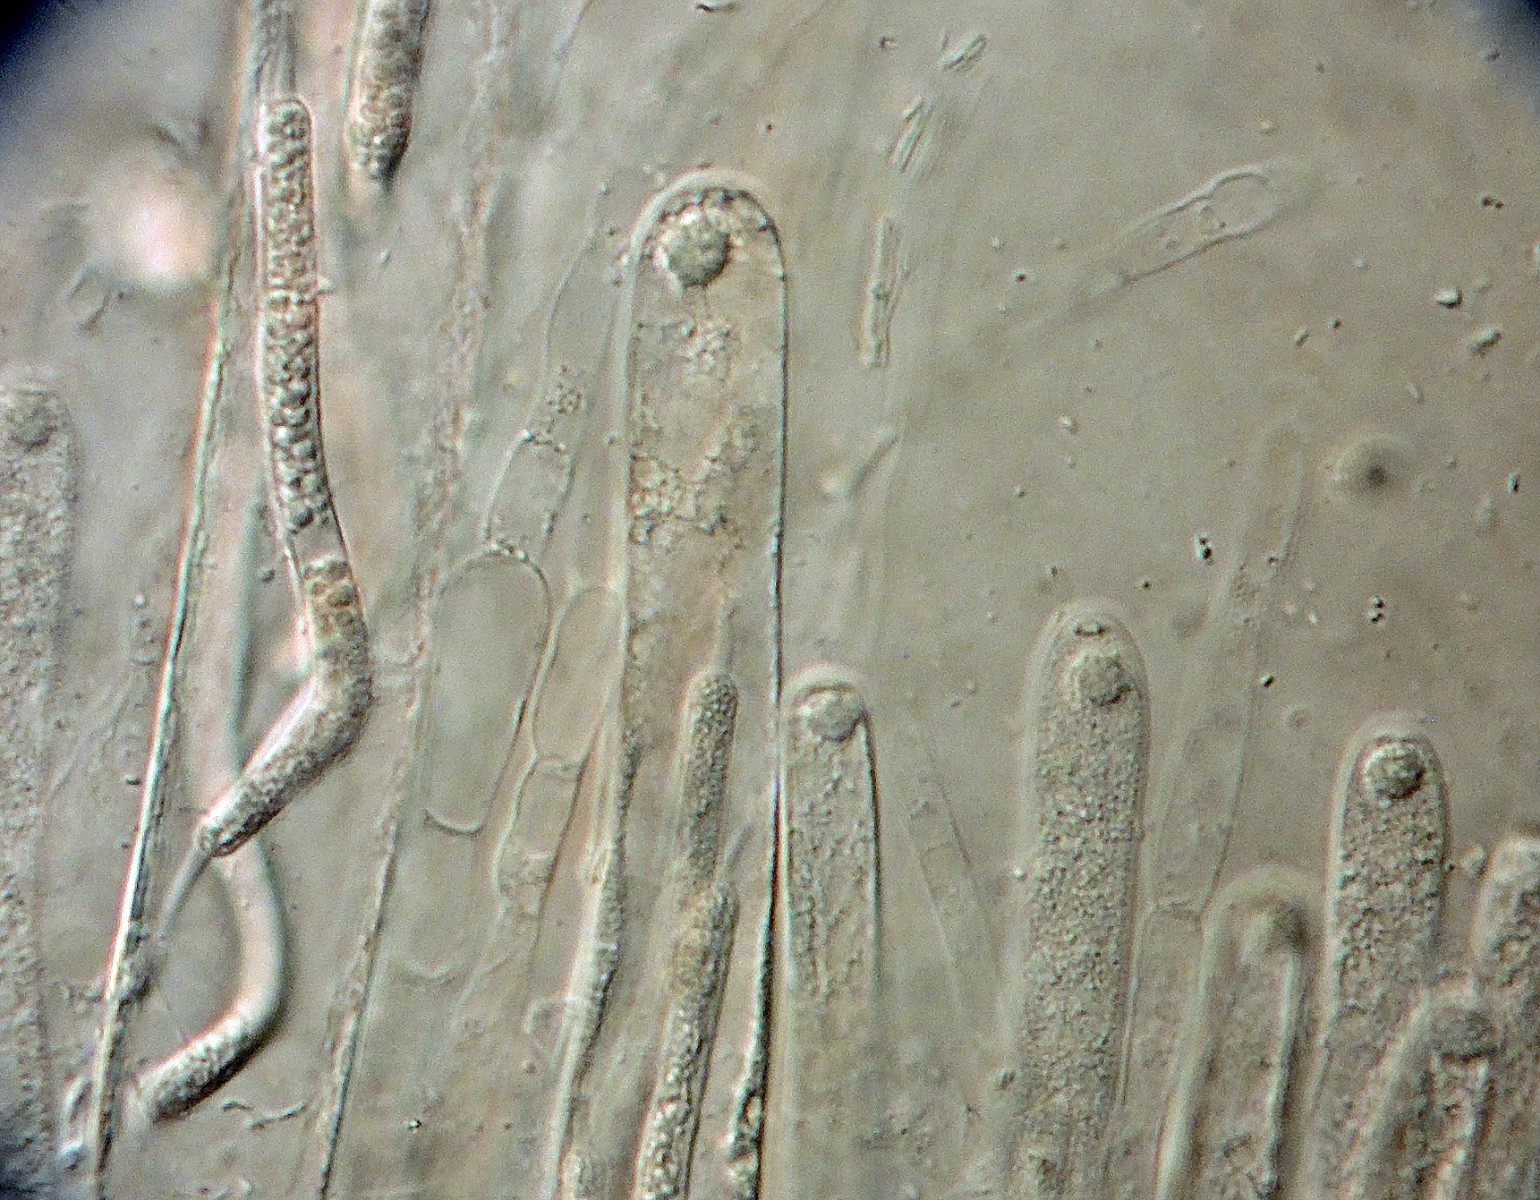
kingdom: Fungi
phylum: Ascomycota
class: Sordariomycetes
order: Sordariales
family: Lasiosphaeriaceae
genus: Lasiosphaeria
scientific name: Lasiosphaeria lanuginosa
